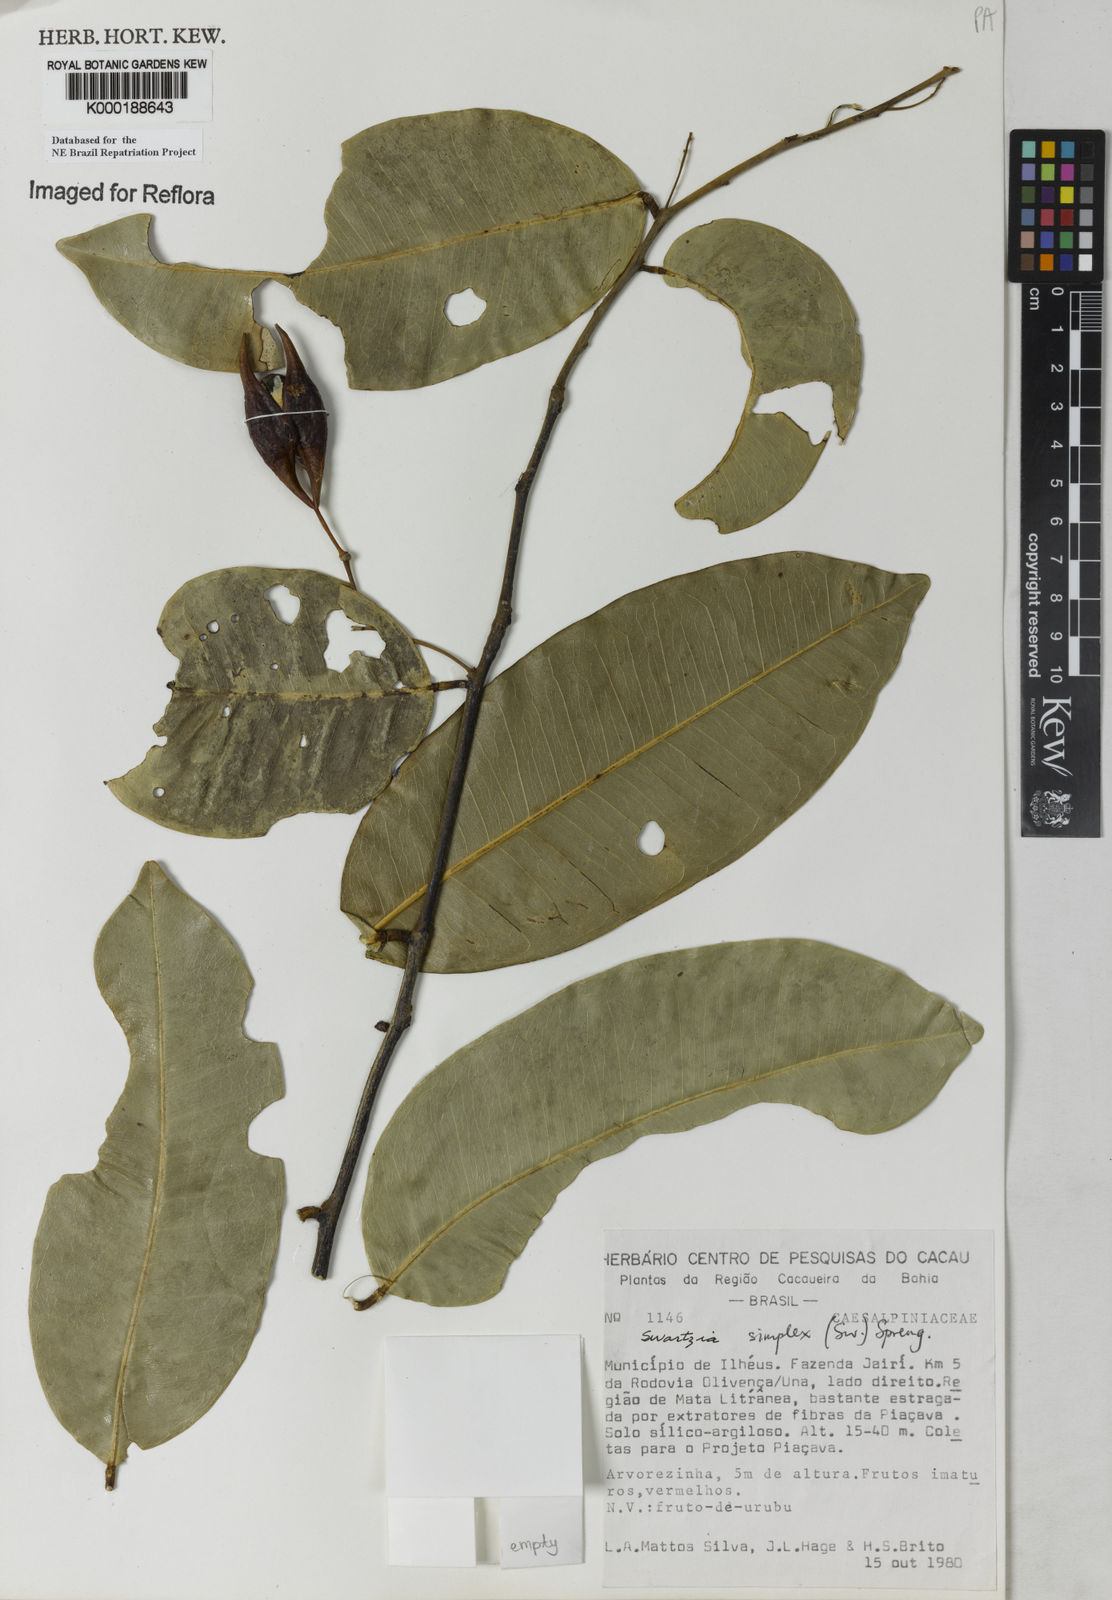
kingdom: Plantae
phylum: Tracheophyta
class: Magnoliopsida
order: Fabales
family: Fabaceae
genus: Swartzia
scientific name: Swartzia simplex
